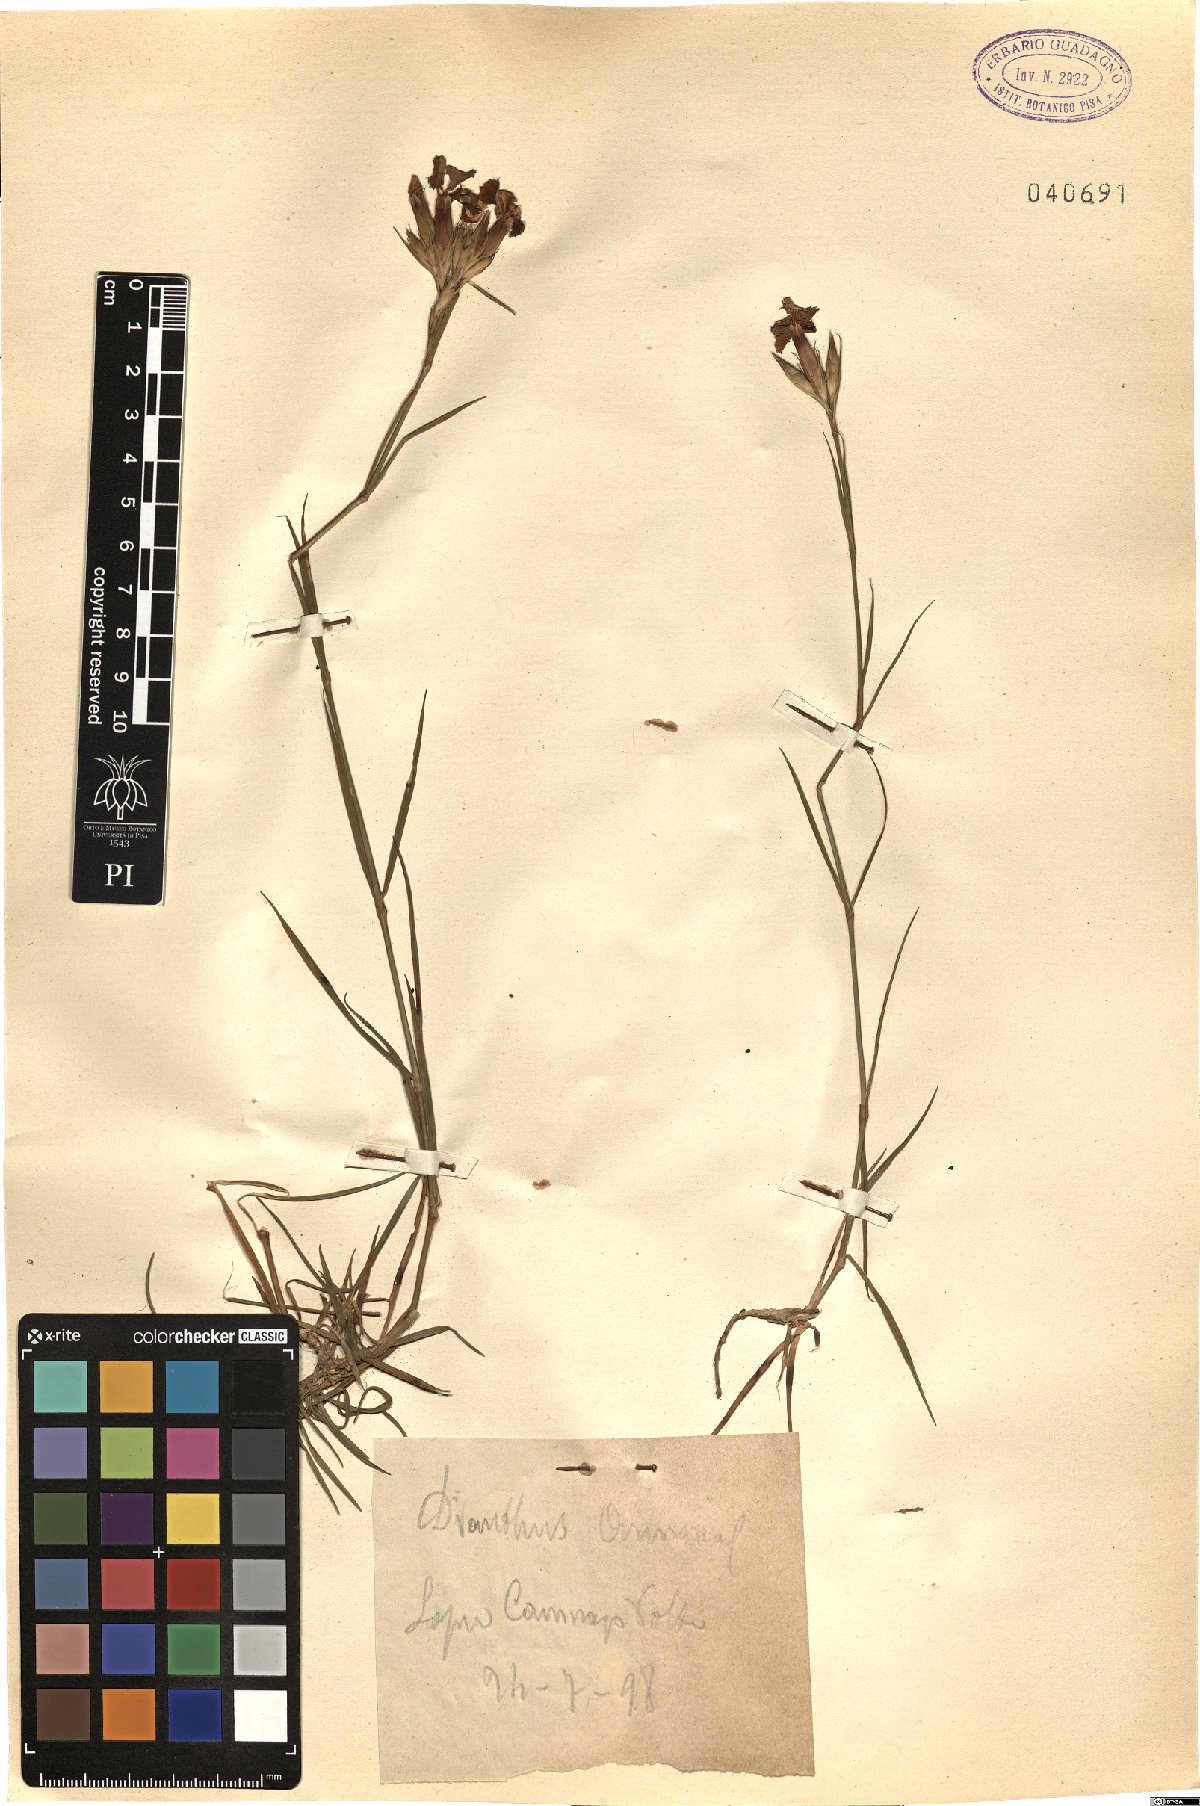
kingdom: Plantae
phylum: Tracheophyta
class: Magnoliopsida
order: Caryophyllales
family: Caryophyllaceae
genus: Dianthus
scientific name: Dianthus armeria
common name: Deptford pink
